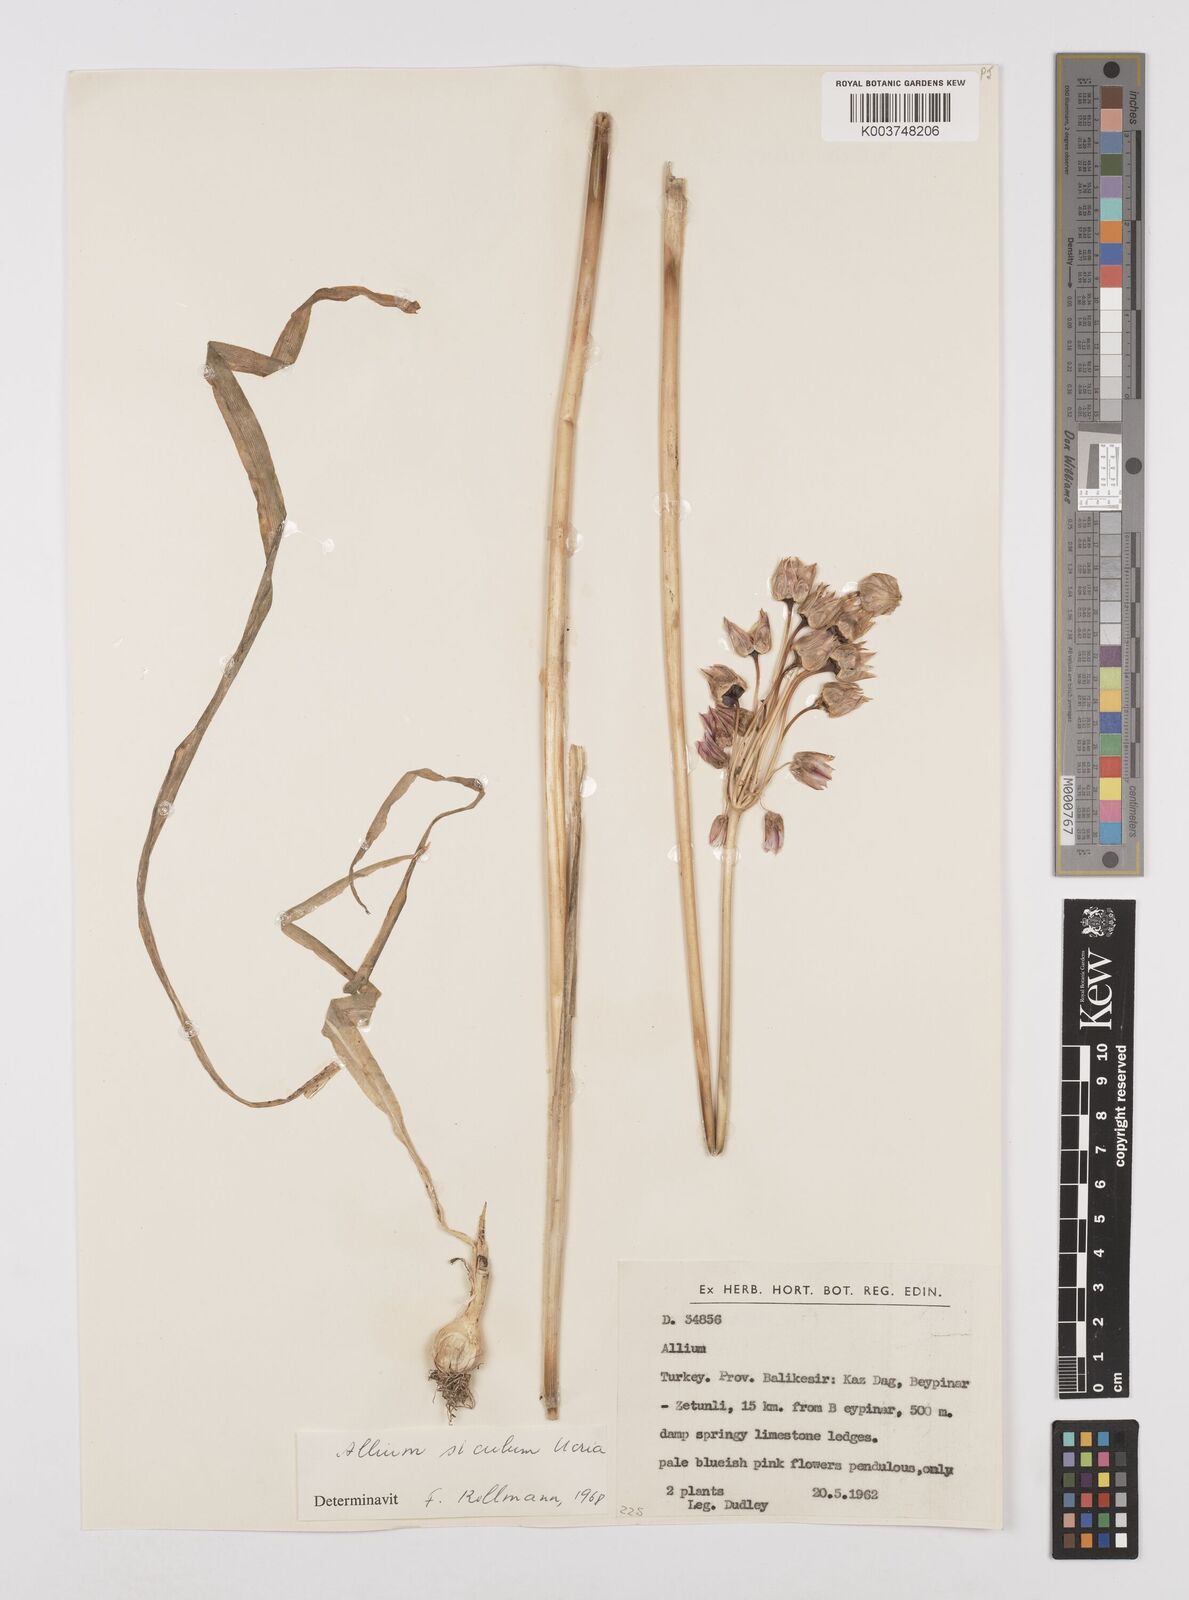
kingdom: Plantae
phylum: Tracheophyta
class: Liliopsida
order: Asparagales
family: Amaryllidaceae
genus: Allium
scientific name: Allium siculum
